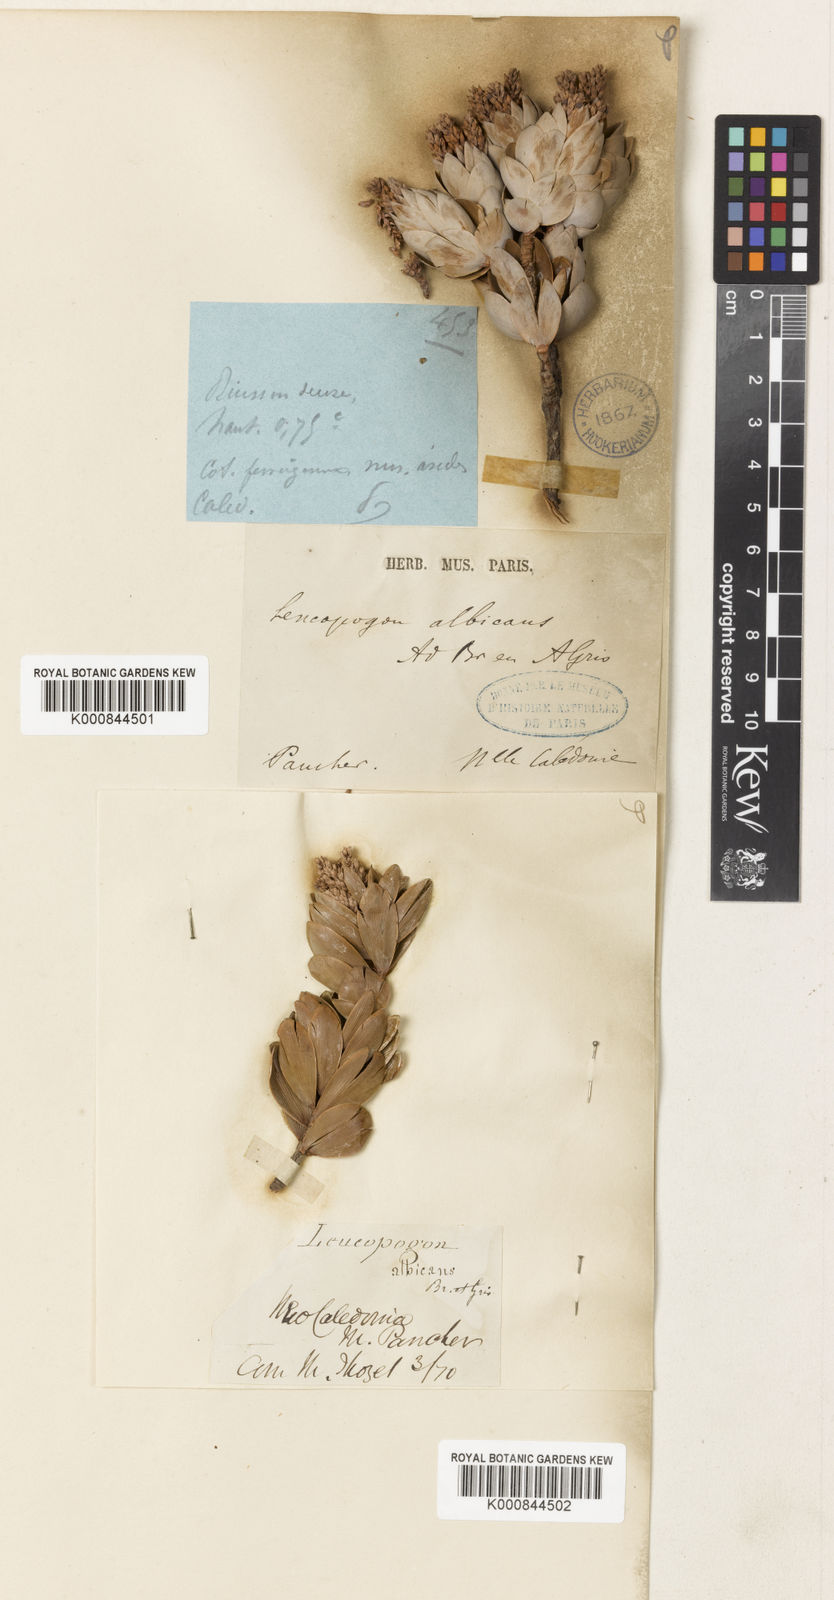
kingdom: Plantae
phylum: Tracheophyta
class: Magnoliopsida
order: Ericales
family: Ericaceae
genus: Cyathopsis
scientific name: Cyathopsis albicans
